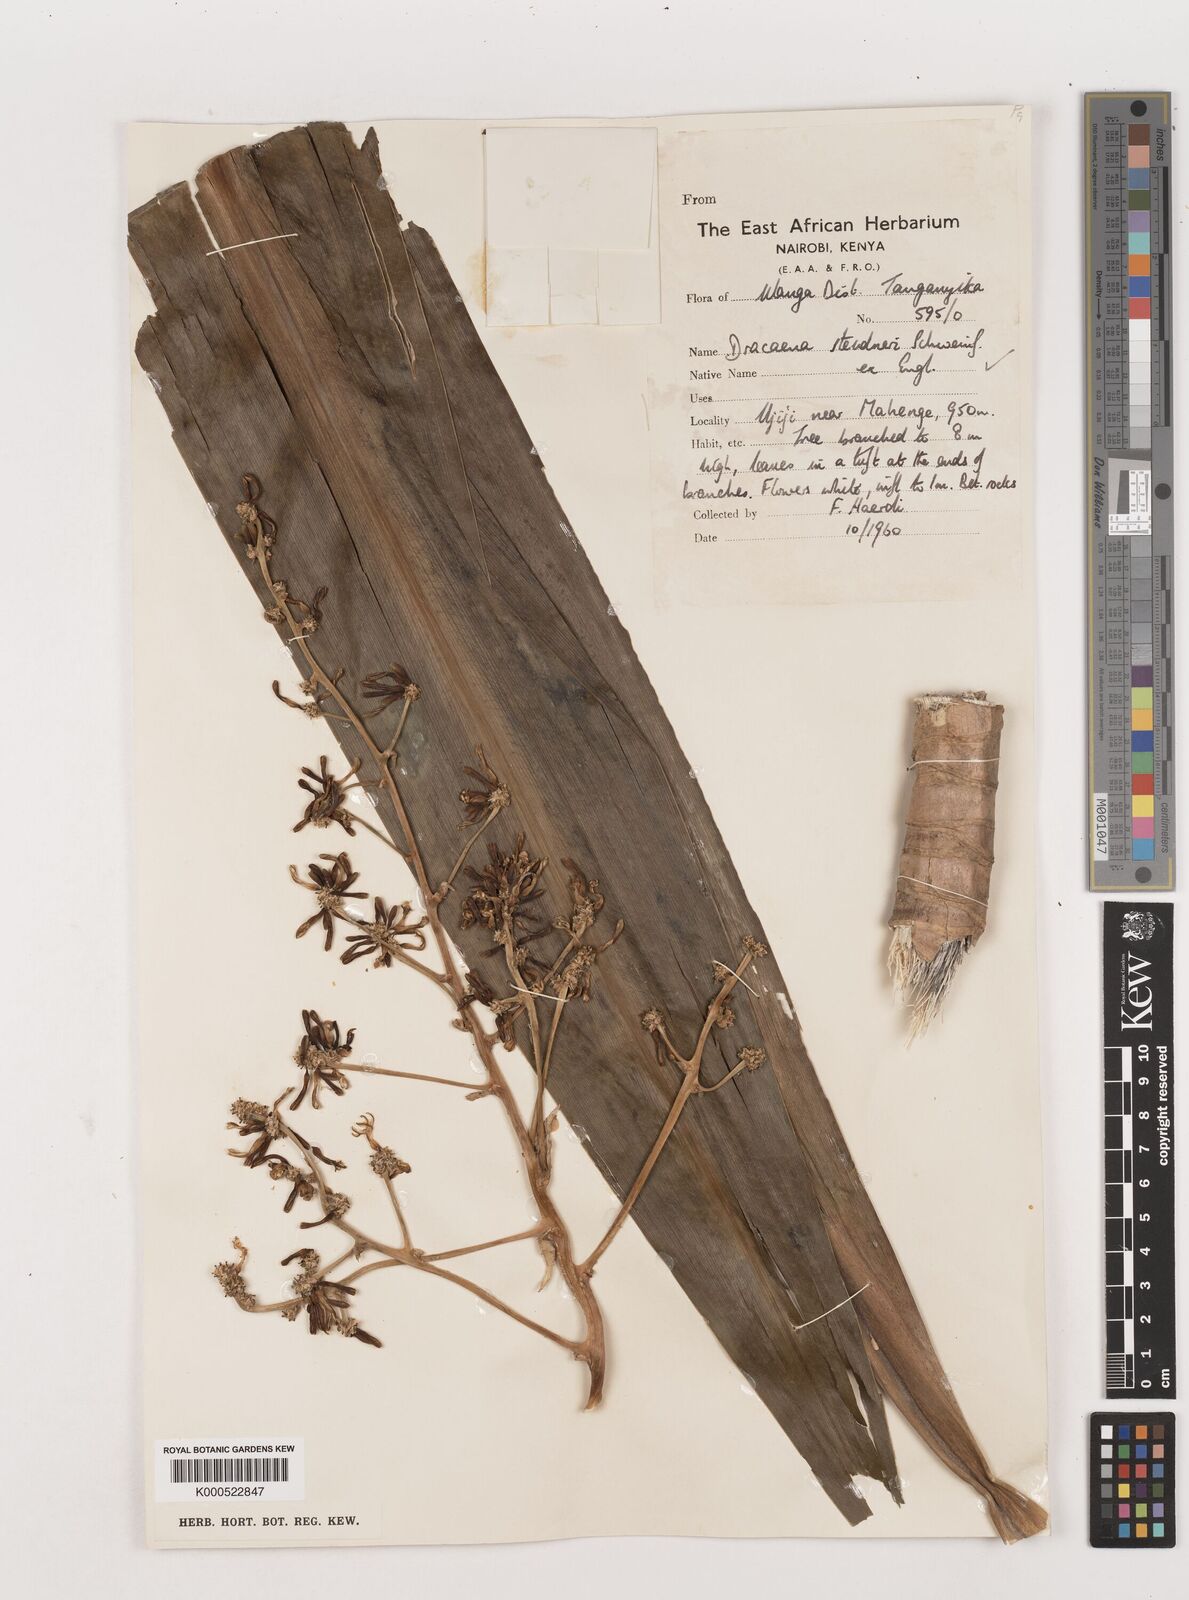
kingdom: Plantae
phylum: Tracheophyta
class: Liliopsida
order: Asparagales
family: Asparagaceae
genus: Dracaena
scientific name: Dracaena steudneri
